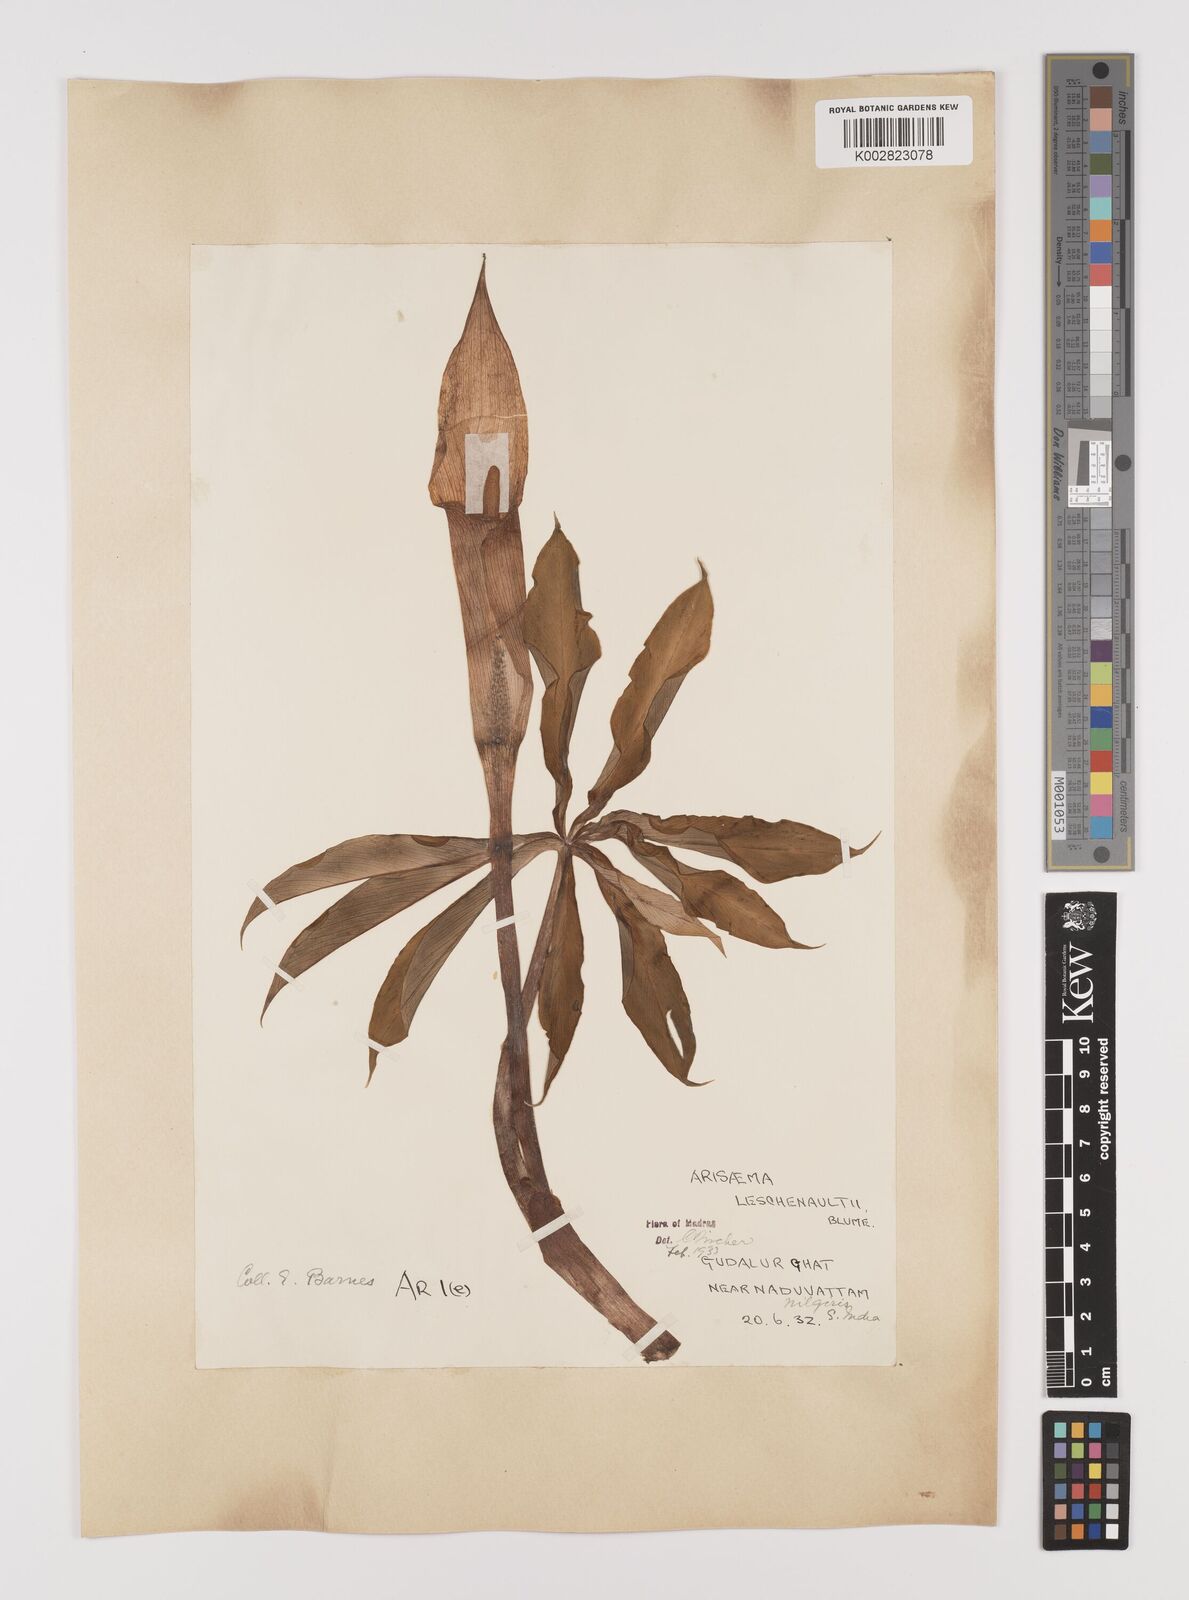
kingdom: Plantae
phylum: Tracheophyta
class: Liliopsida
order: Alismatales
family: Araceae
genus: Arisaema
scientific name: Arisaema leschenaultii
